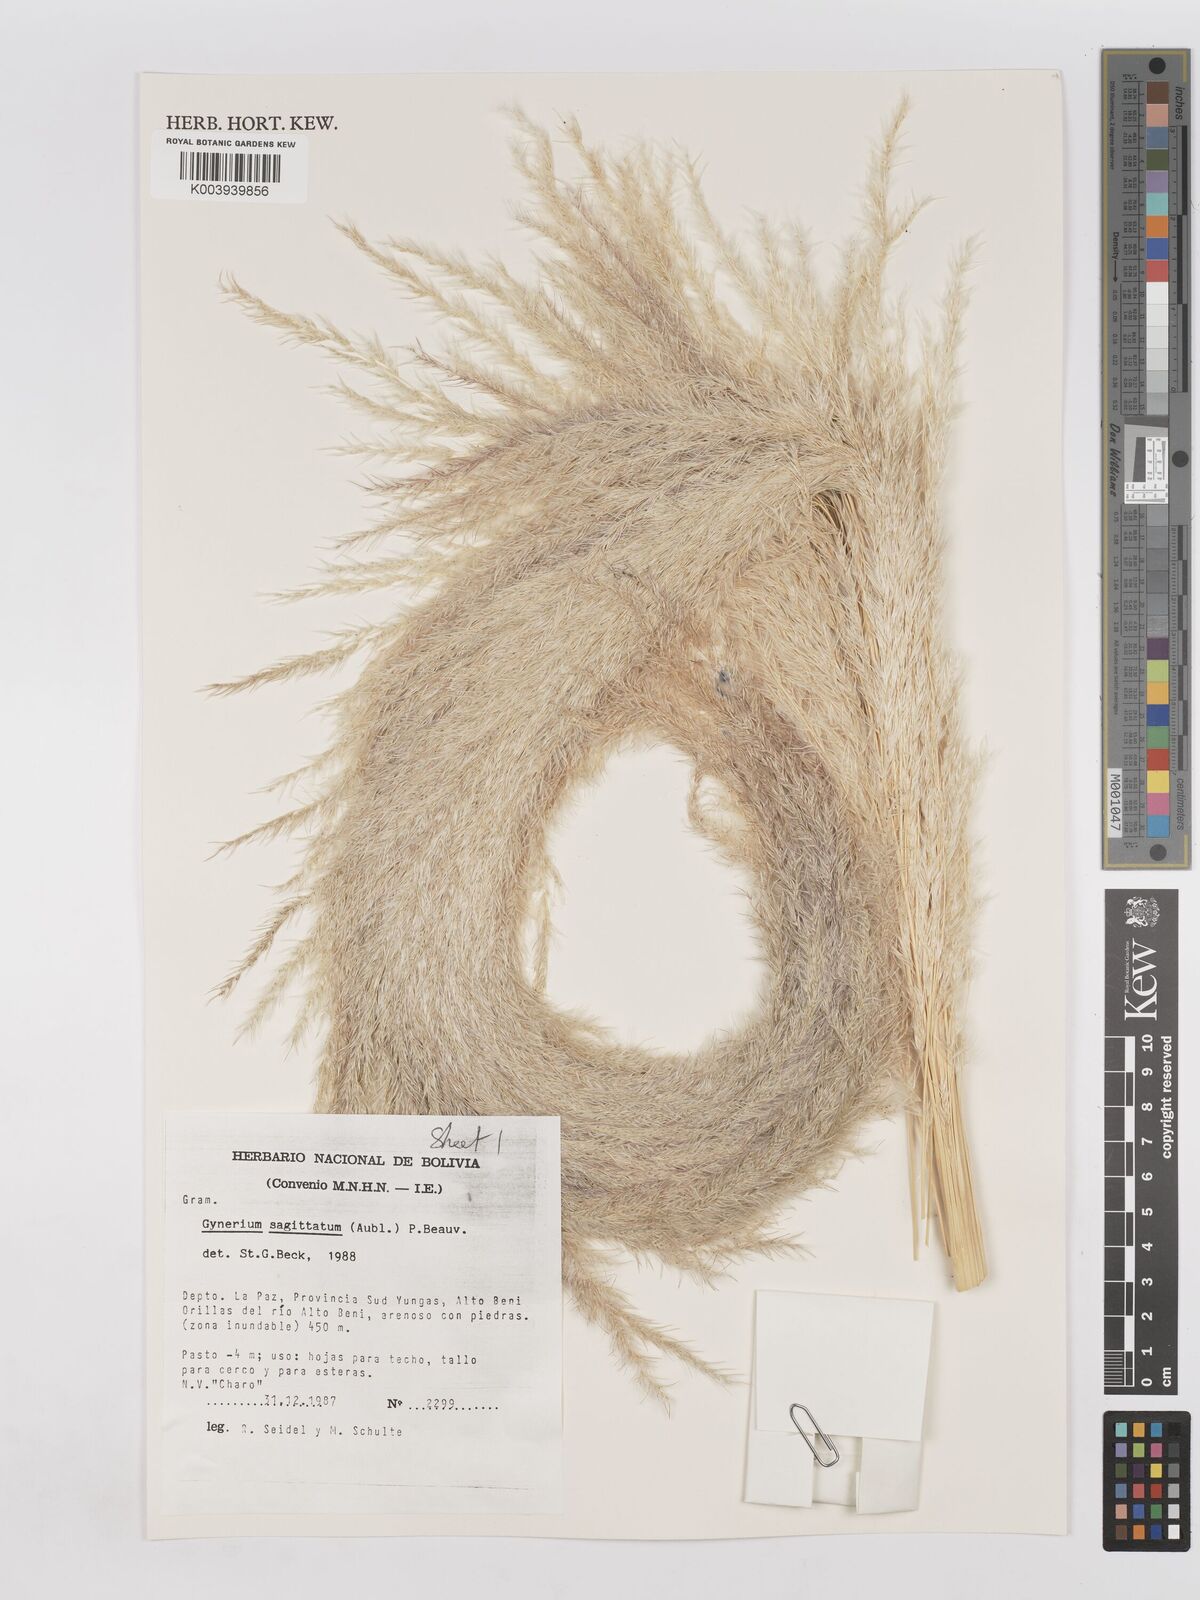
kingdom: Plantae
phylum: Tracheophyta
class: Liliopsida
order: Poales
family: Poaceae
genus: Gynerium
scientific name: Gynerium sagittatum
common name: Wild cane
